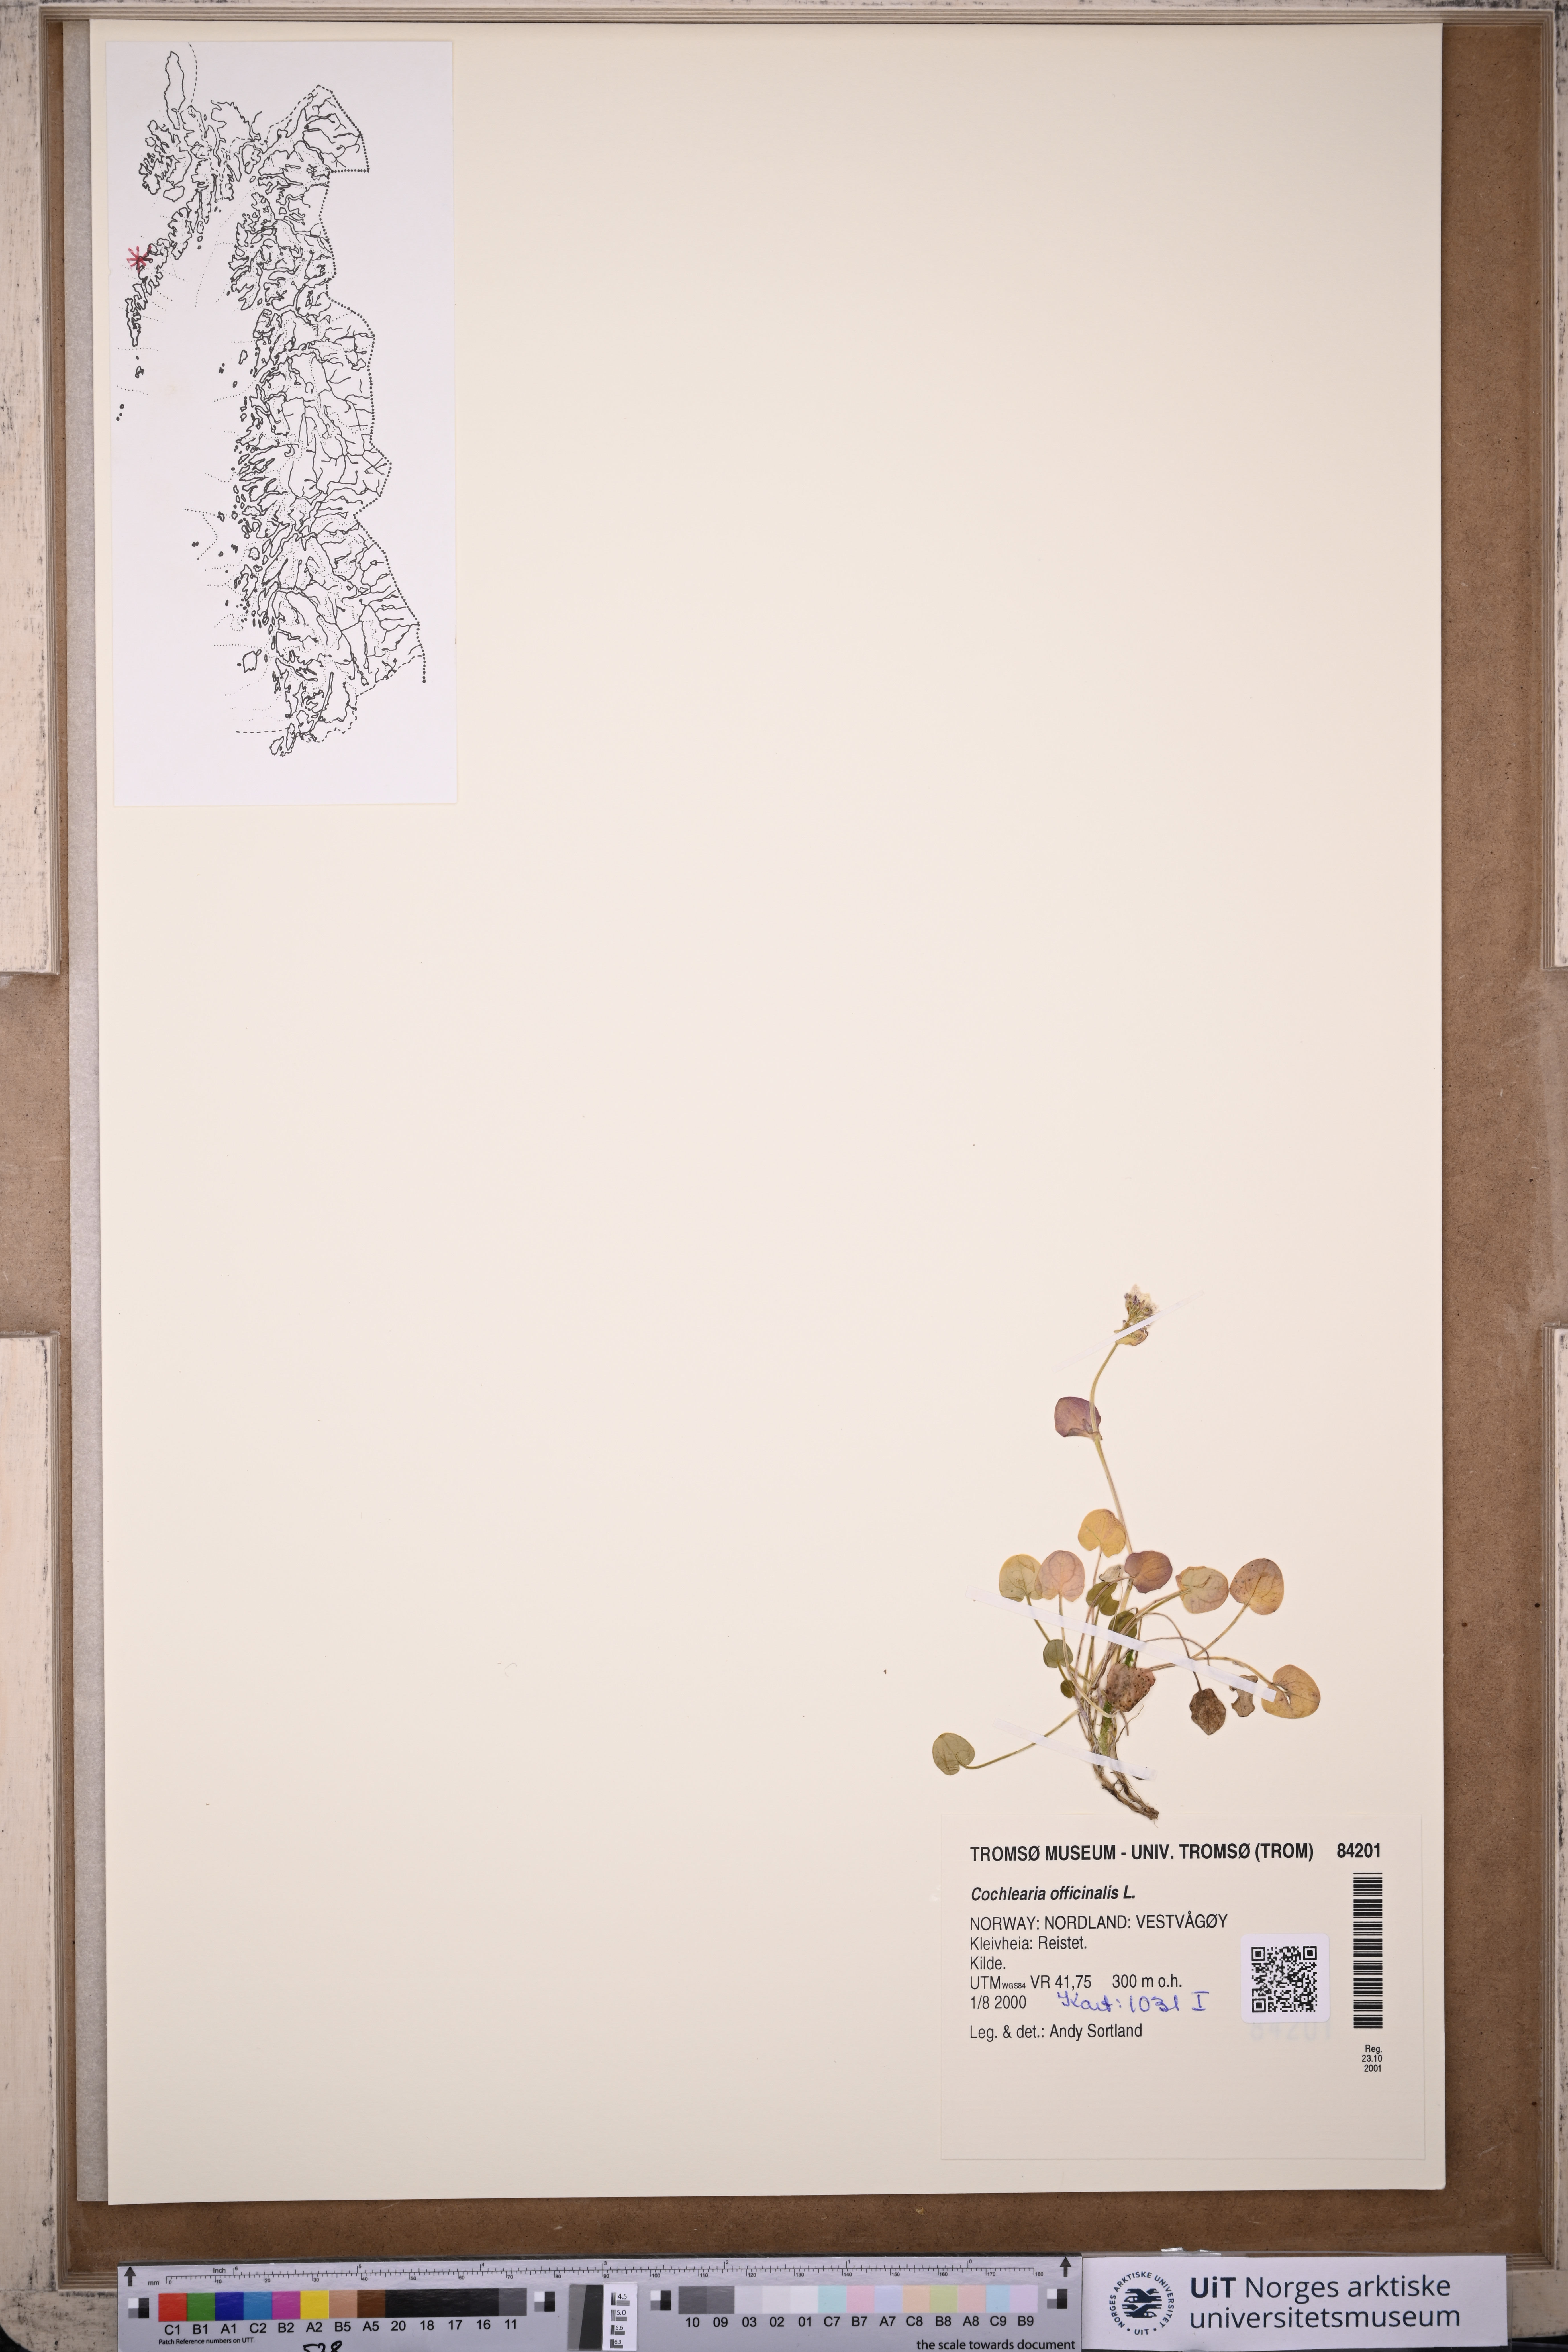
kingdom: Plantae
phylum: Tracheophyta
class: Magnoliopsida
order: Brassicales
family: Brassicaceae
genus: Cochlearia
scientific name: Cochlearia officinalis
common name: Scurvy-grass
